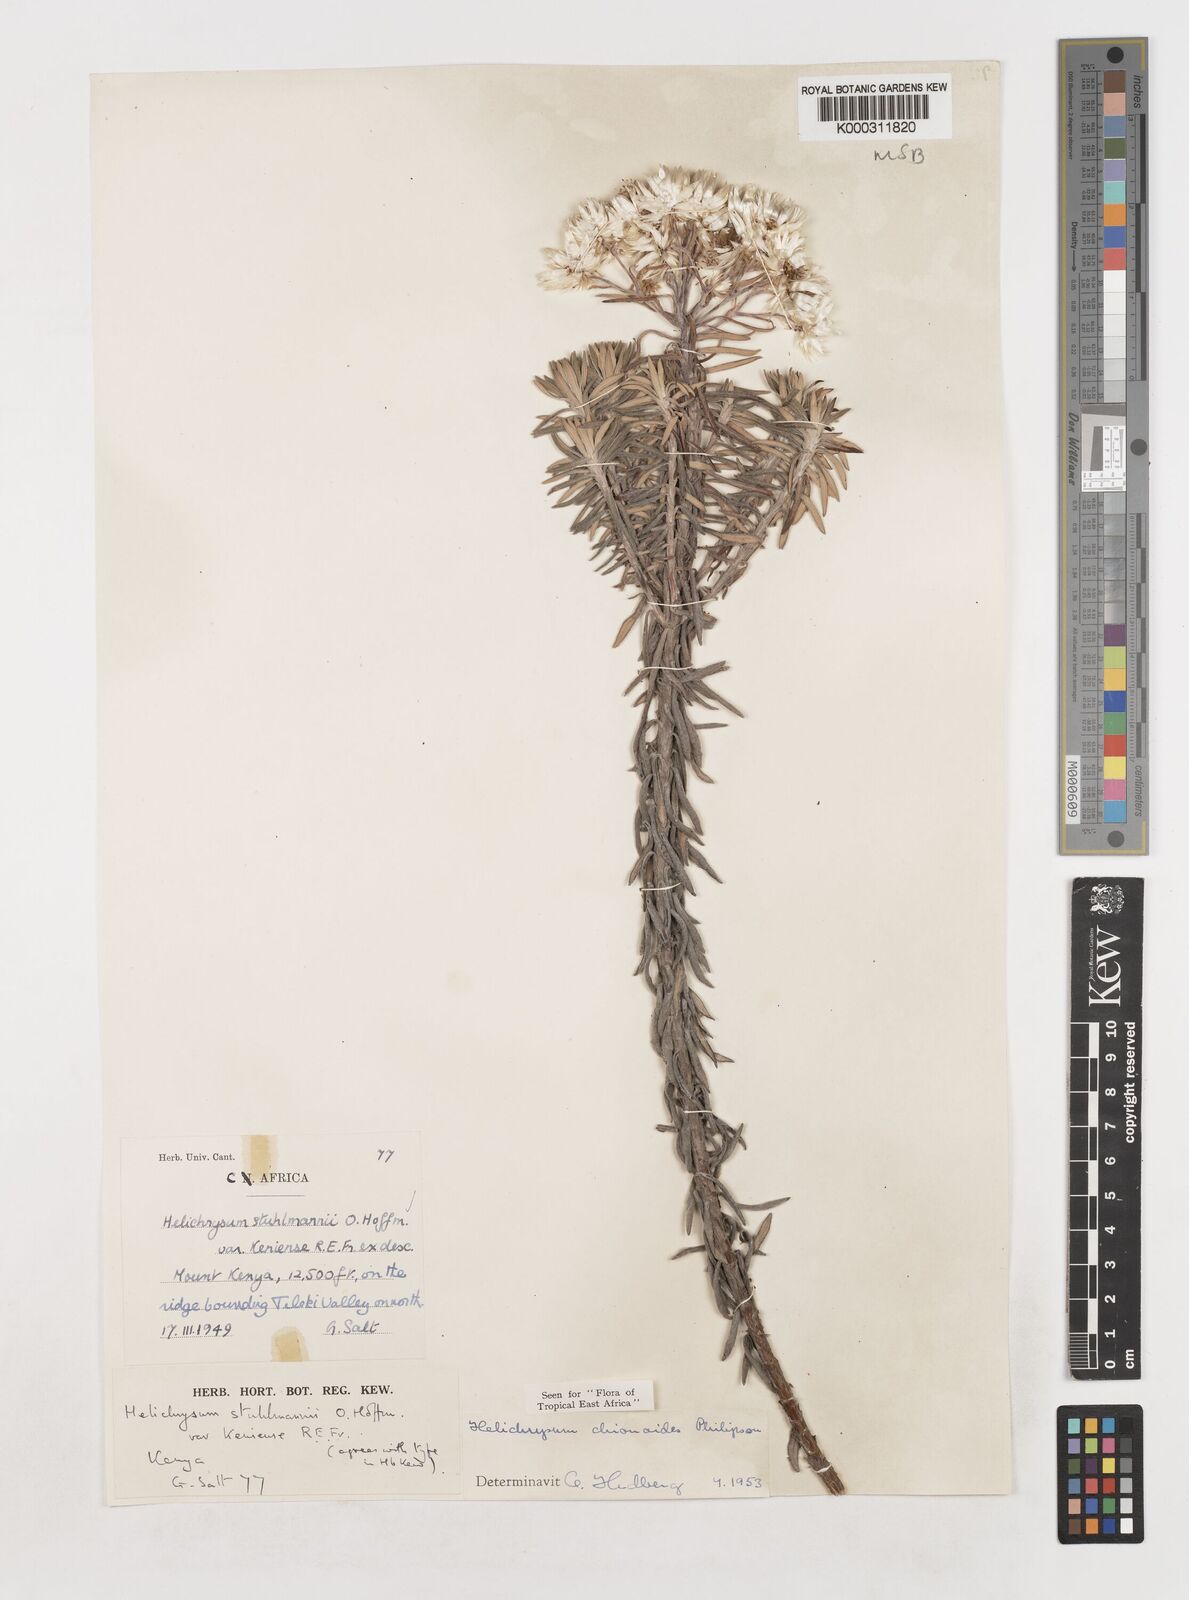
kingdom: Plantae
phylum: Tracheophyta
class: Magnoliopsida
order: Asterales
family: Asteraceae
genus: Helichrysum
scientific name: Helichrysum chionoides
